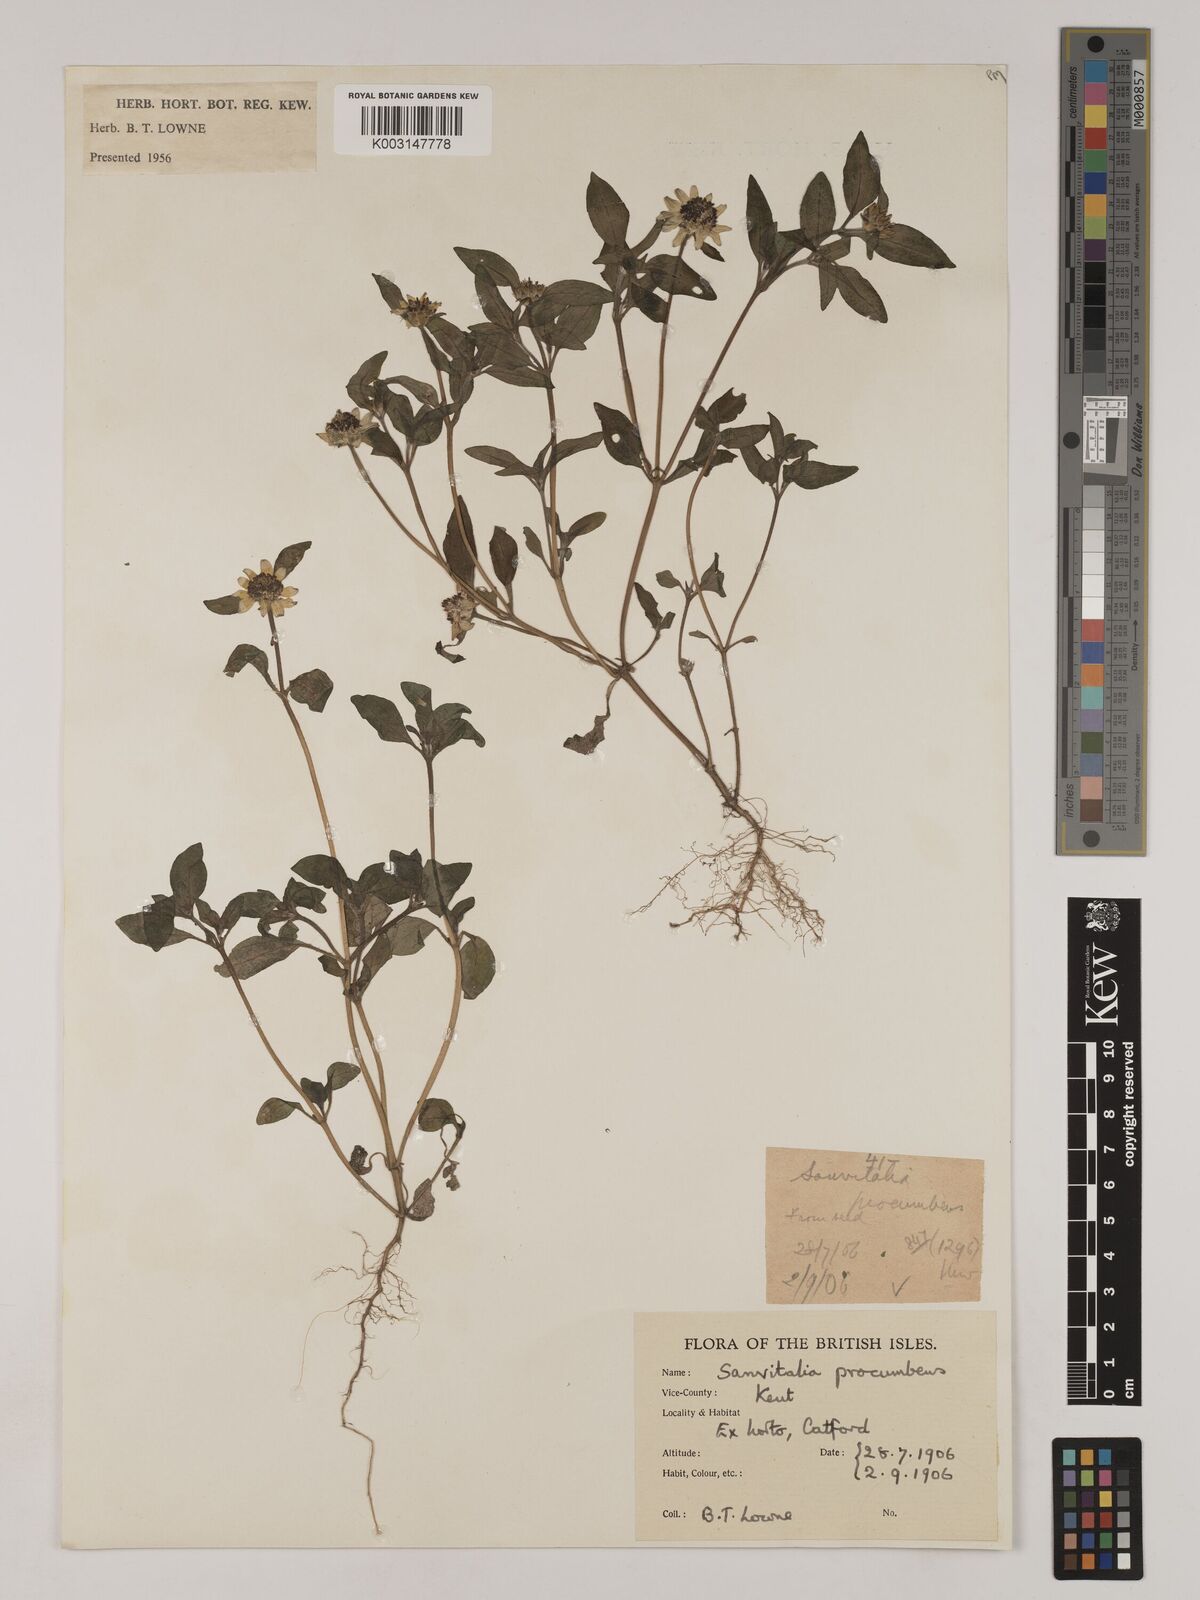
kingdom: Plantae
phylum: Tracheophyta
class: Magnoliopsida
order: Asterales
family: Asteraceae
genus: Sanvitalia
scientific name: Sanvitalia procumbens
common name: Mexican creeping zinnia
